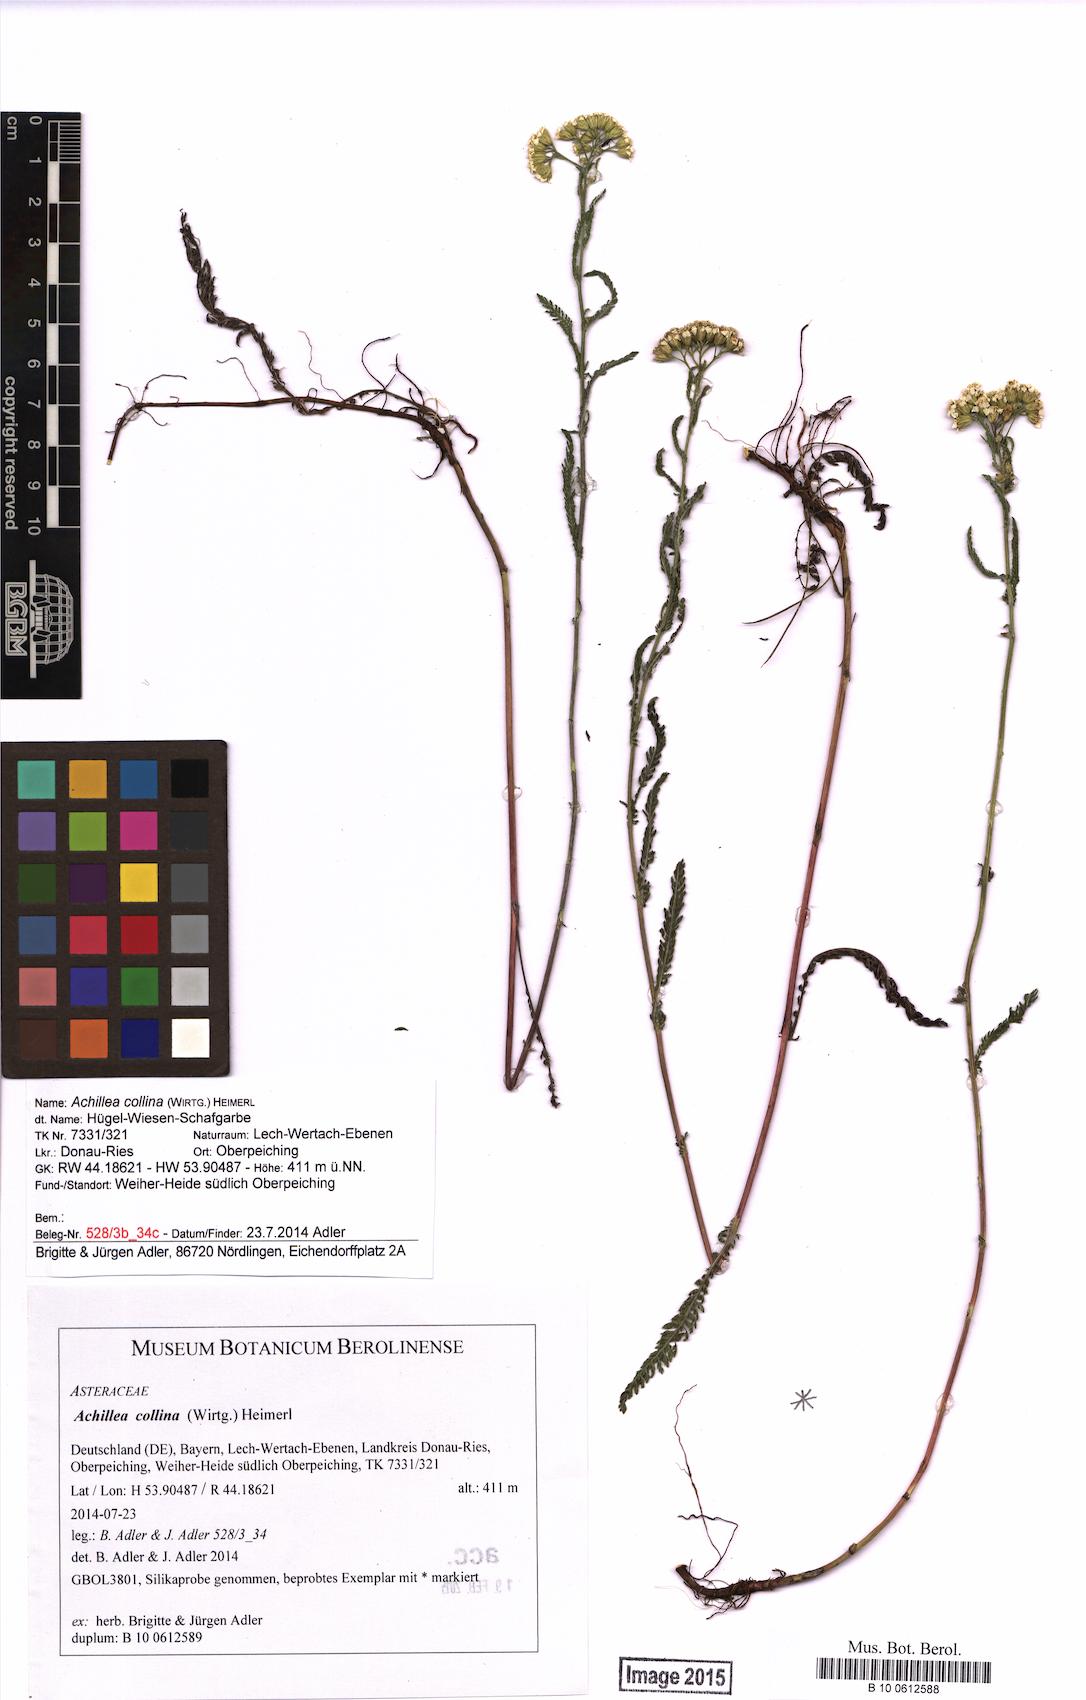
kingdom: Plantae
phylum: Tracheophyta
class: Magnoliopsida
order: Asterales
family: Asteraceae
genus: Achillea
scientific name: Achillea collina
